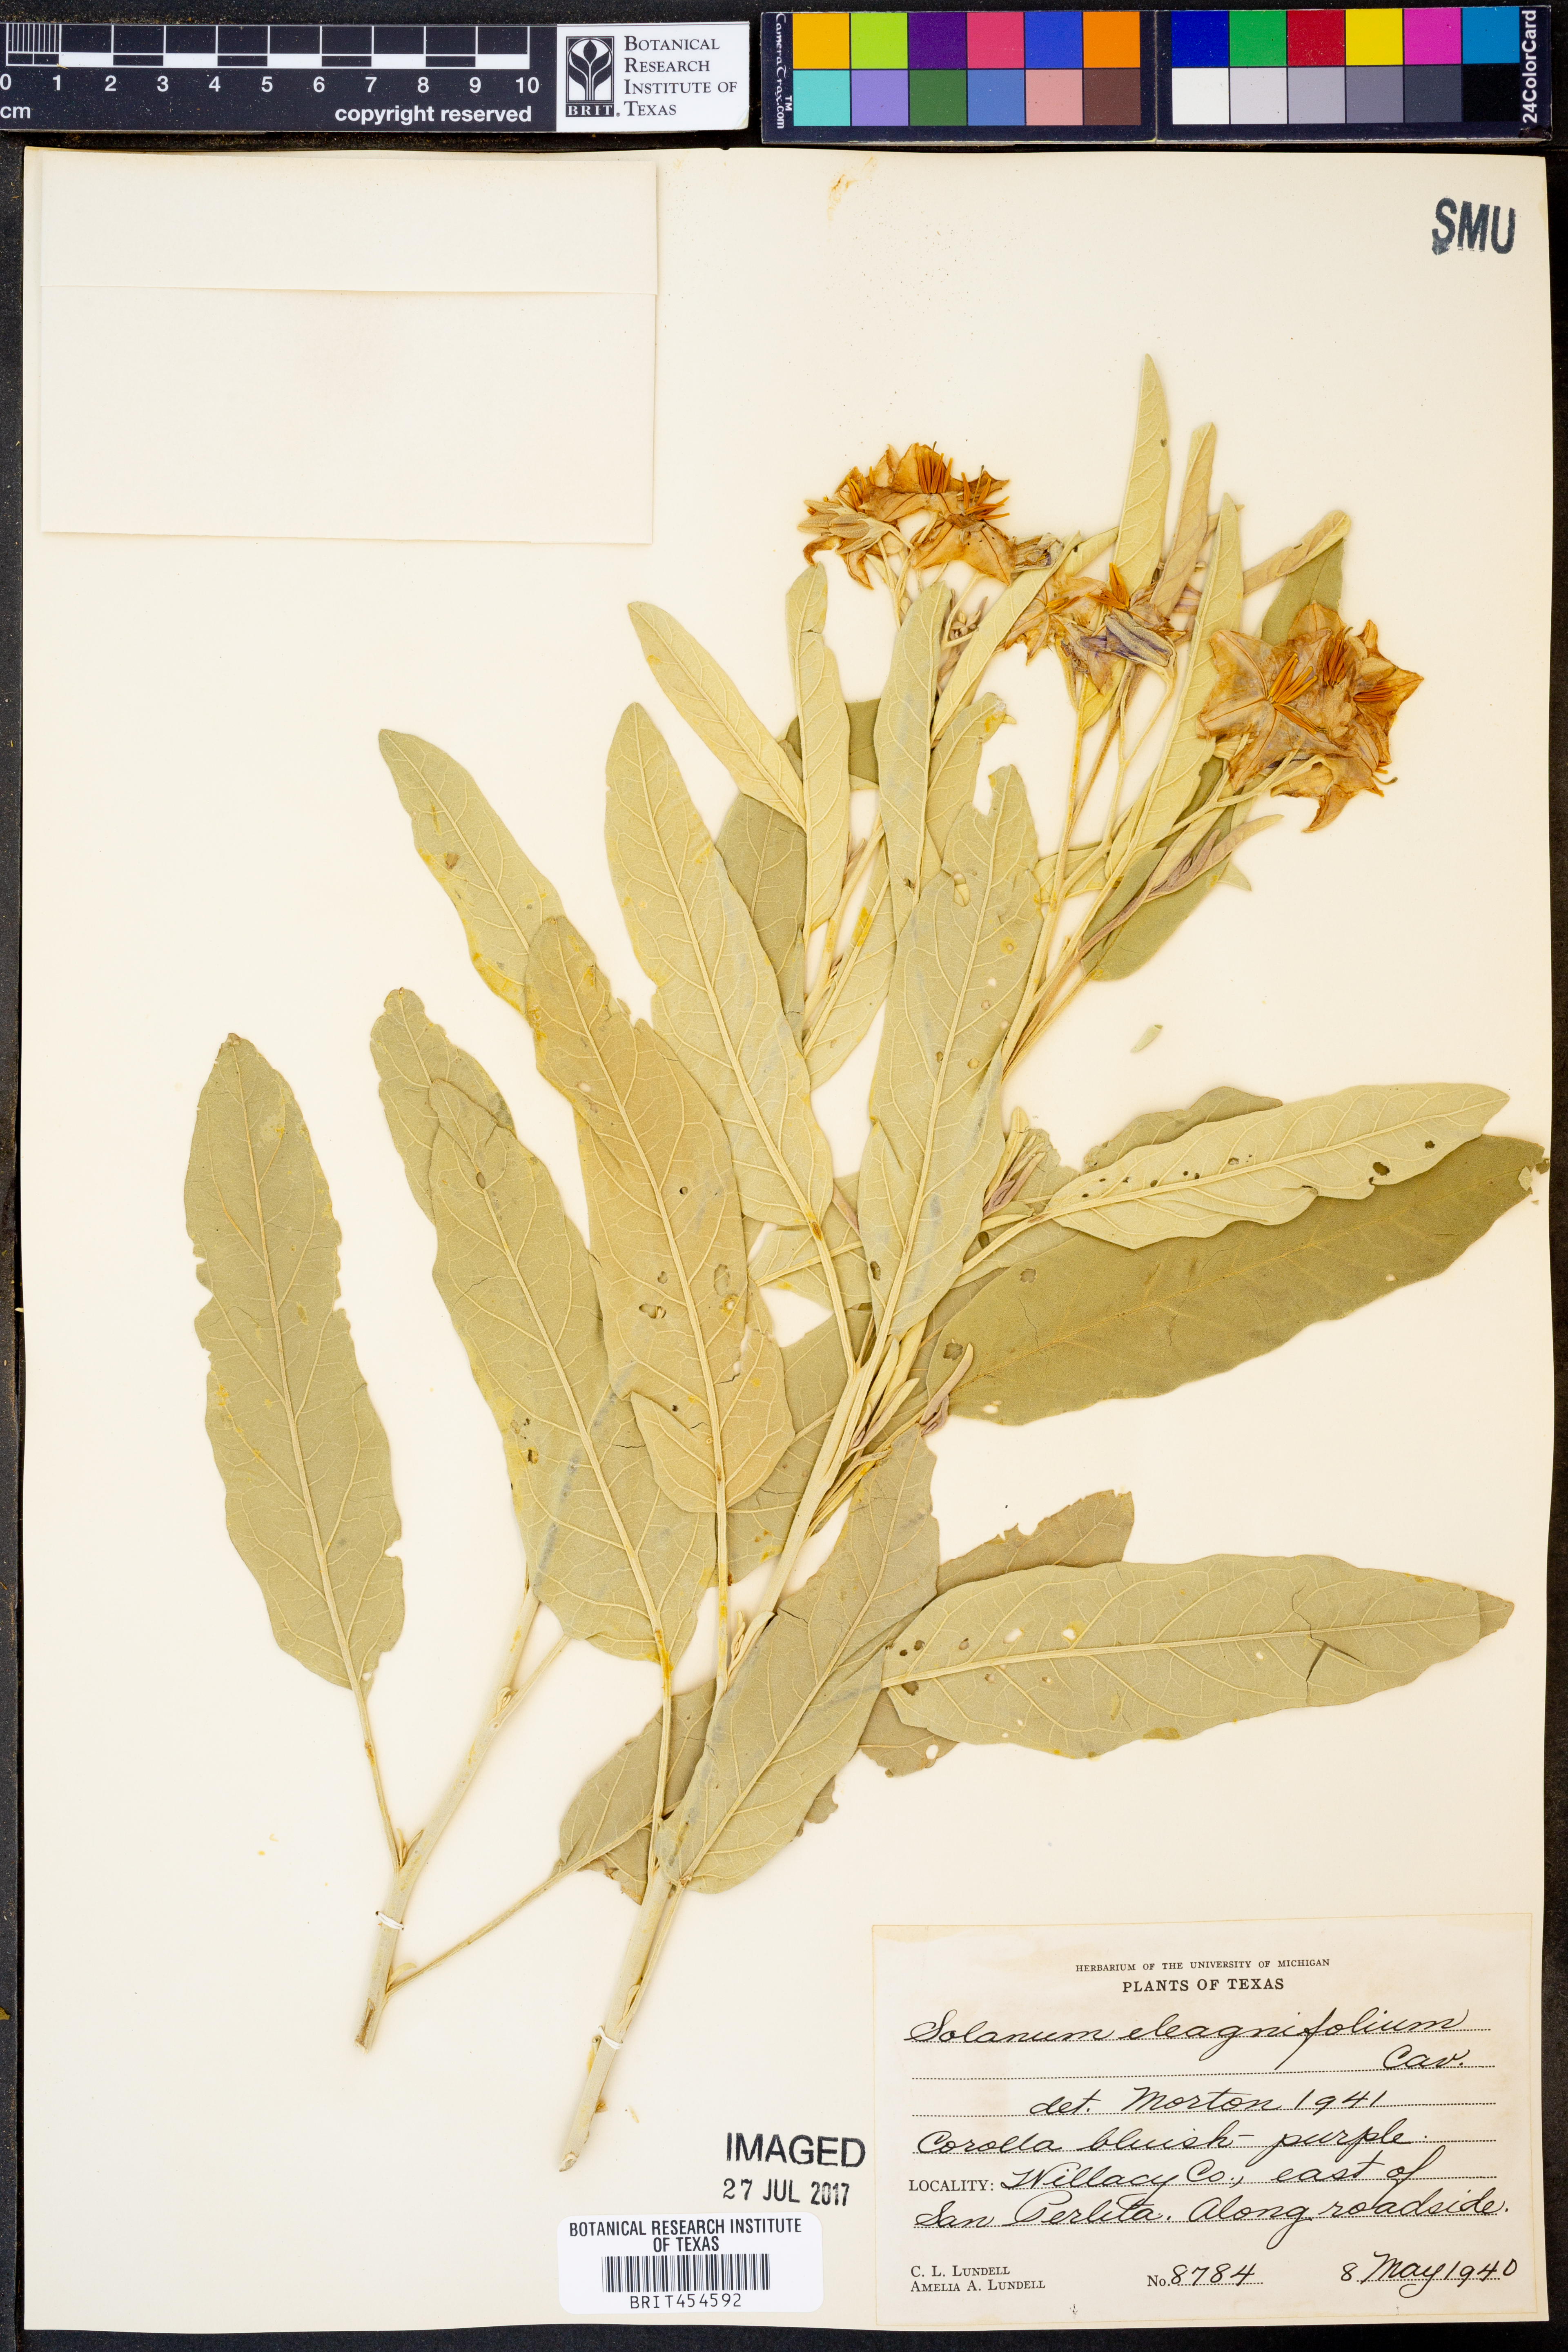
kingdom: Plantae
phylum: Tracheophyta
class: Magnoliopsida
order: Solanales
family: Solanaceae
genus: Solanum
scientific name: Solanum elaeagnifolium
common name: Silverleaf nightshade
